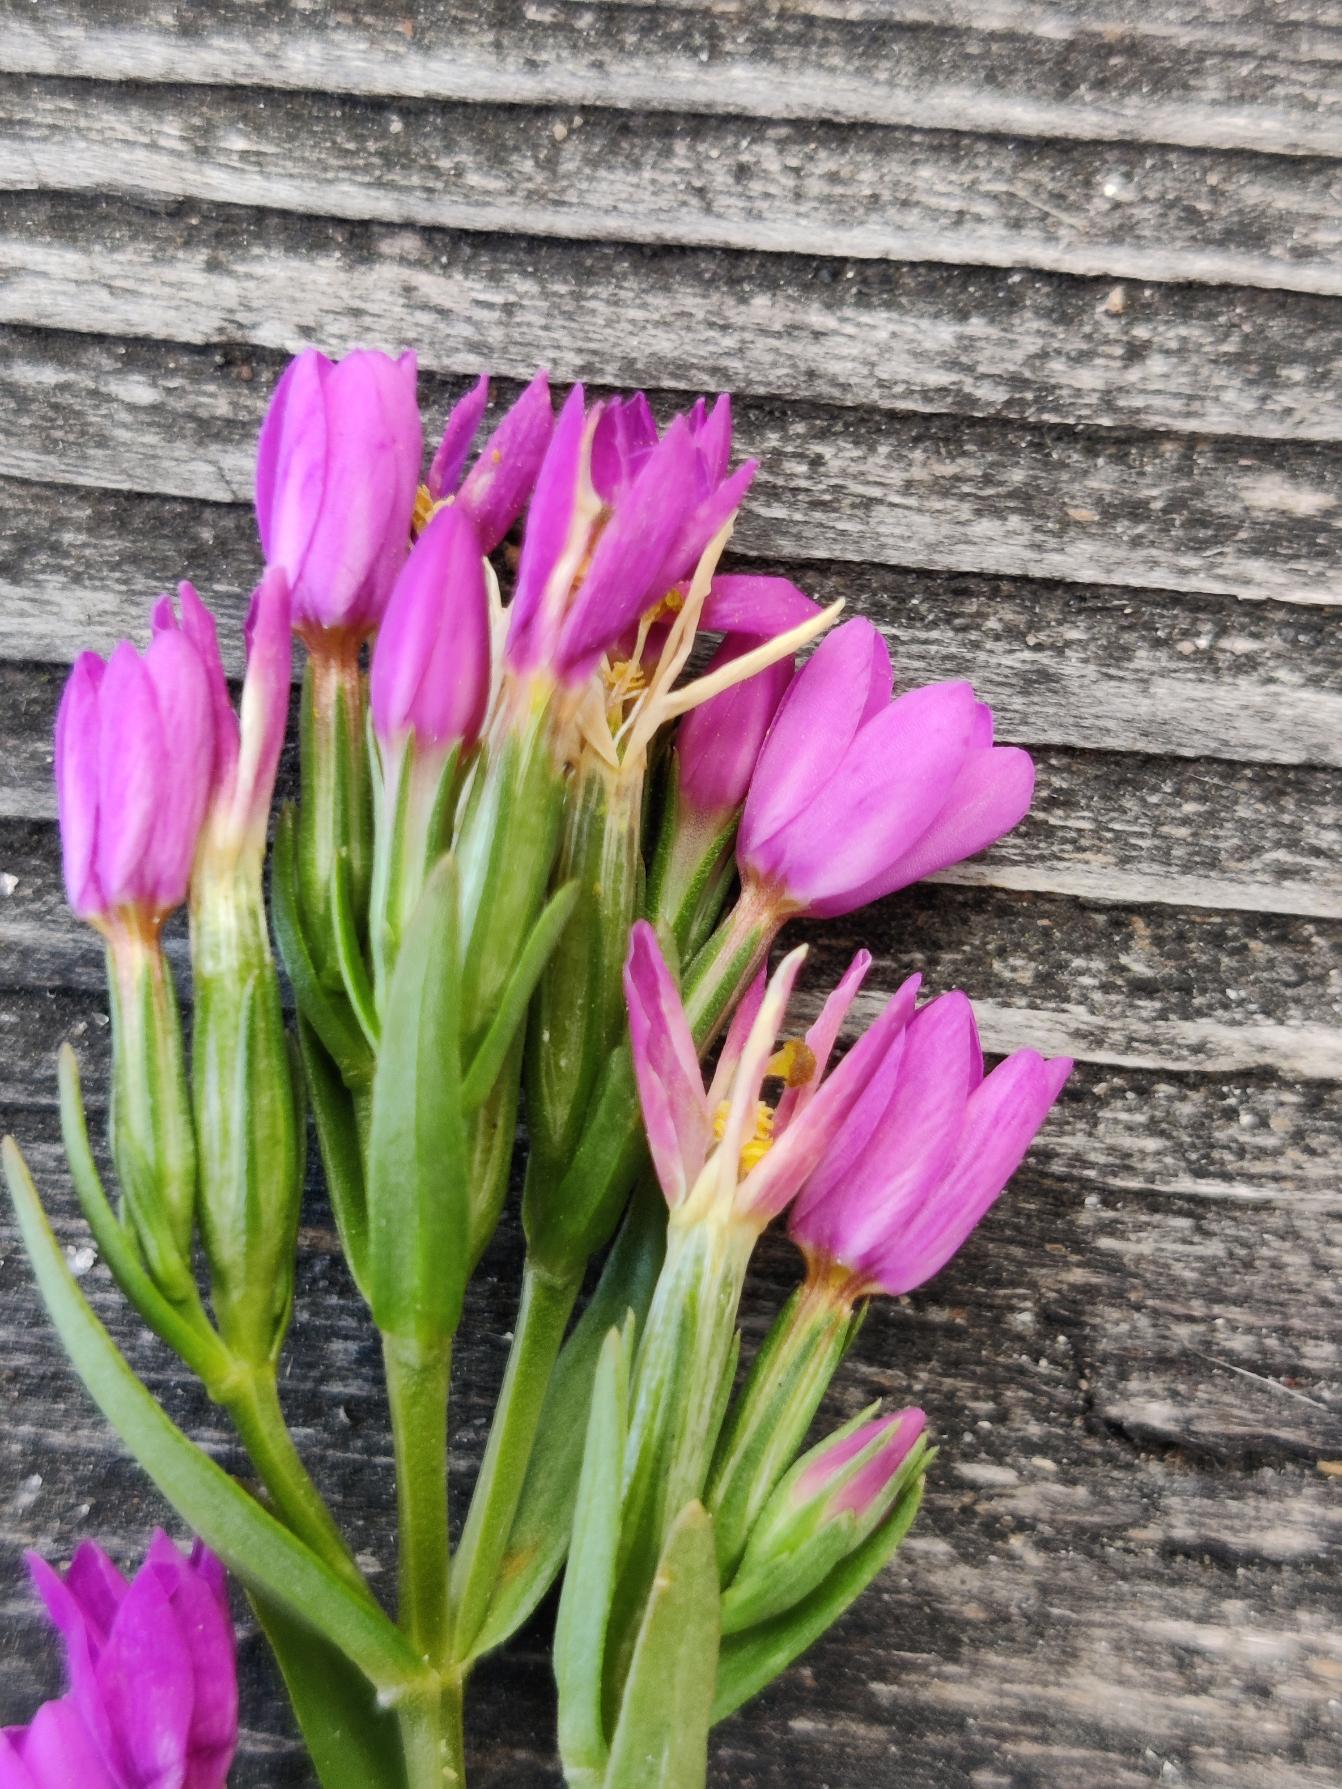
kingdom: Plantae
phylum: Tracheophyta
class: Magnoliopsida
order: Gentianales
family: Gentianaceae
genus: Centaurium
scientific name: Centaurium littorale
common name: Strand-tusindgylden
